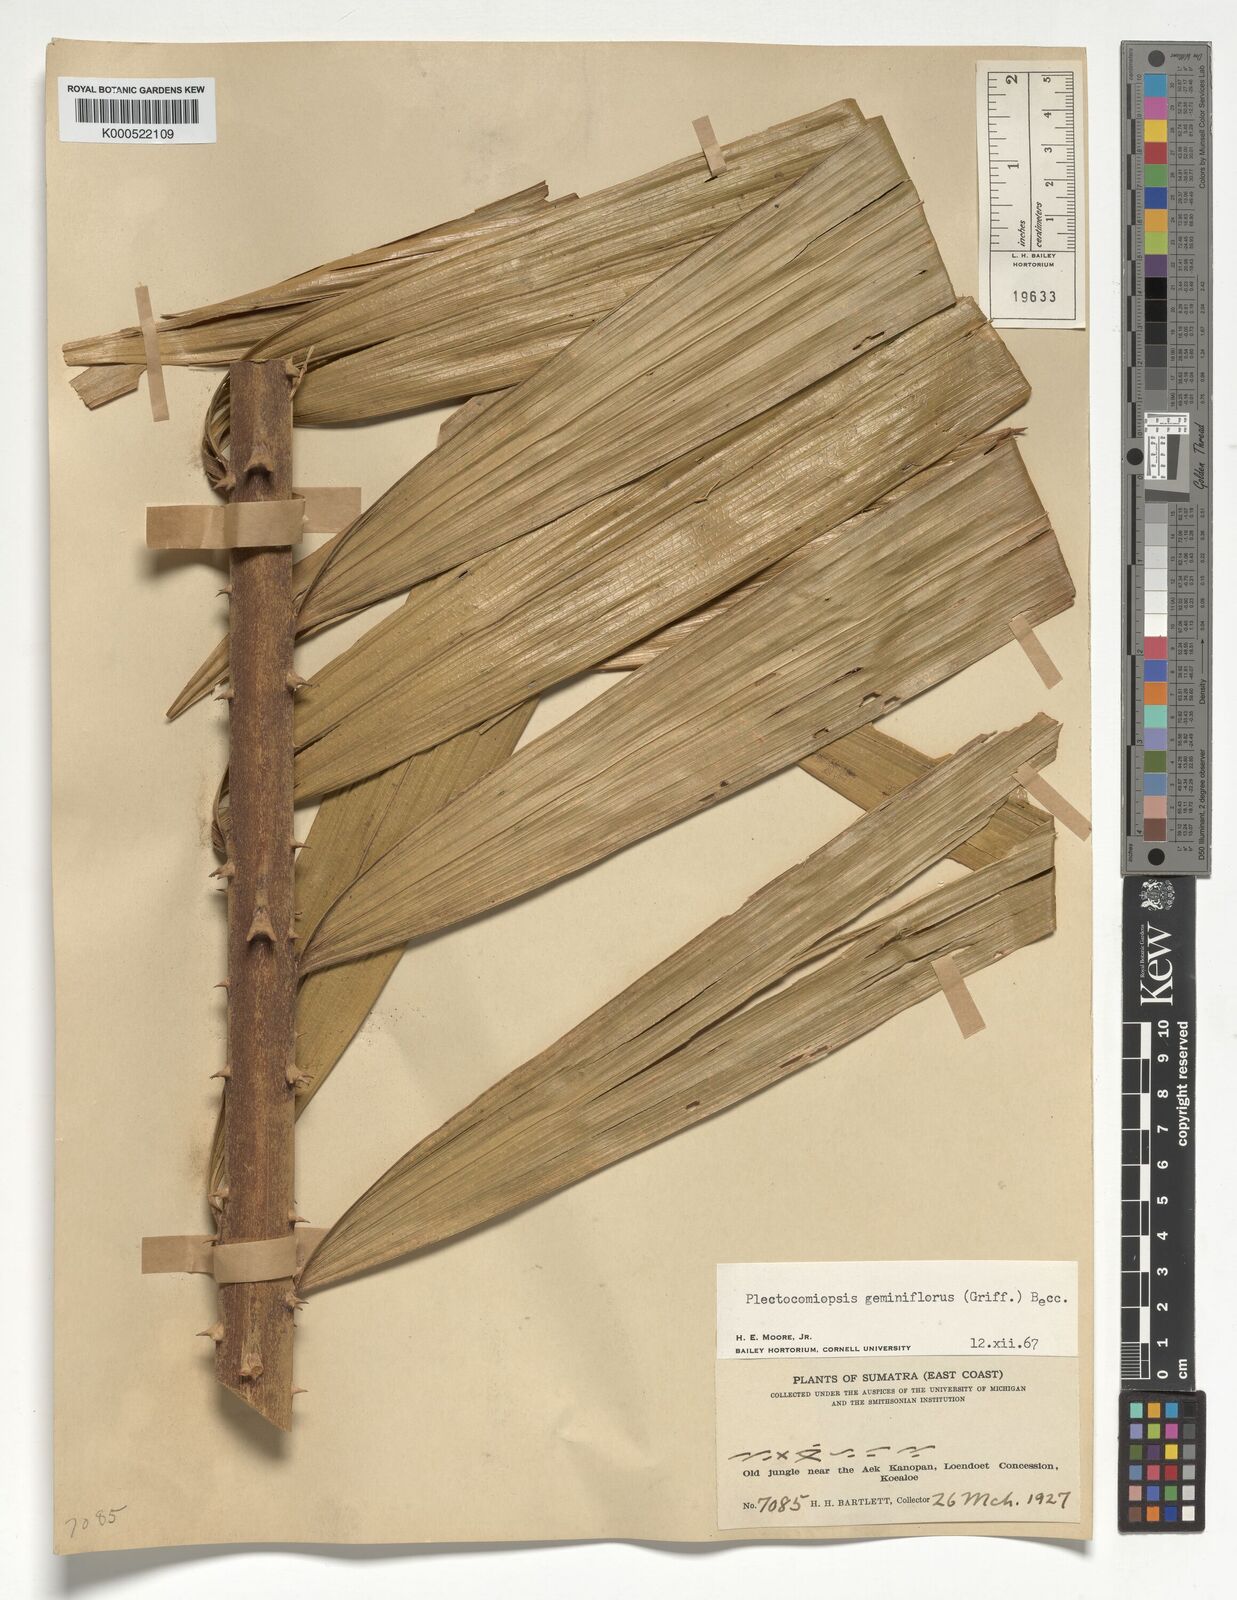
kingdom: Plantae
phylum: Tracheophyta
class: Liliopsida
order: Arecales
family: Arecaceae
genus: Plectocomiopsis
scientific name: Plectocomiopsis geminiflora
